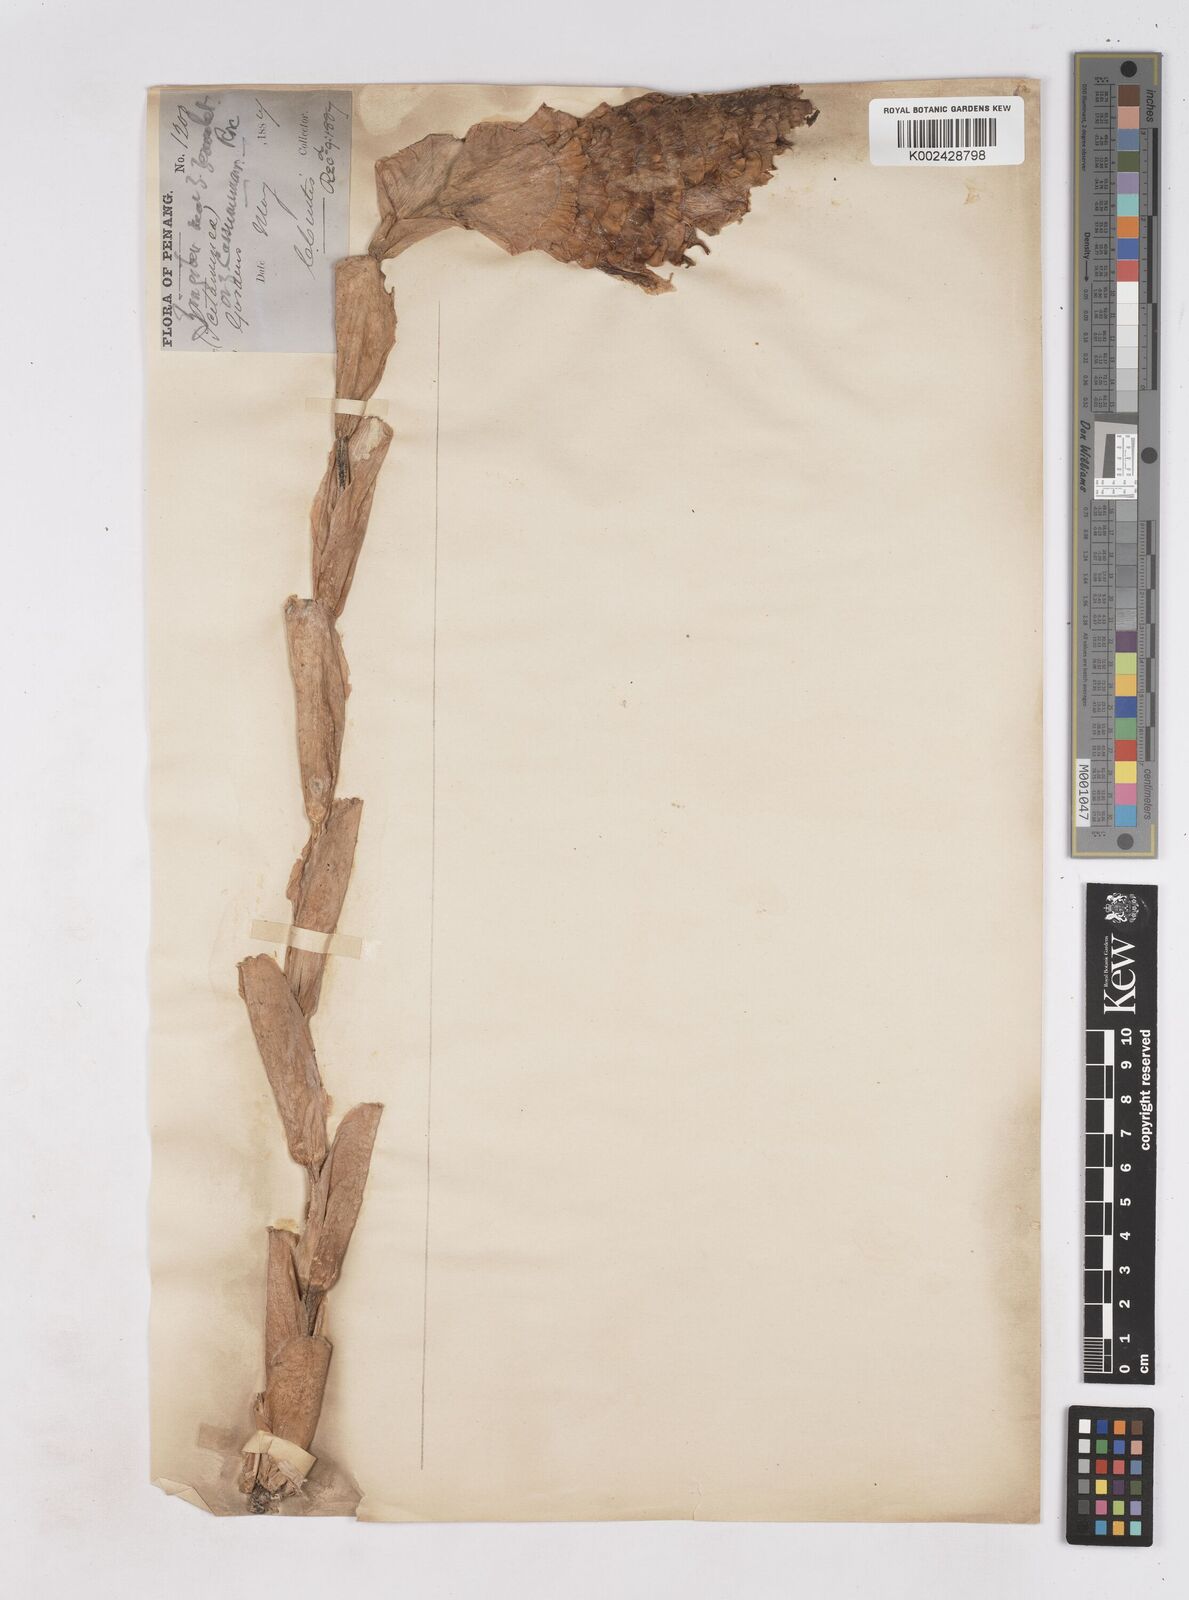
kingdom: Plantae
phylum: Tracheophyta
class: Liliopsida
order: Zingiberales
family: Zingiberaceae
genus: Zingiber
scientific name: Zingiber ottensii
